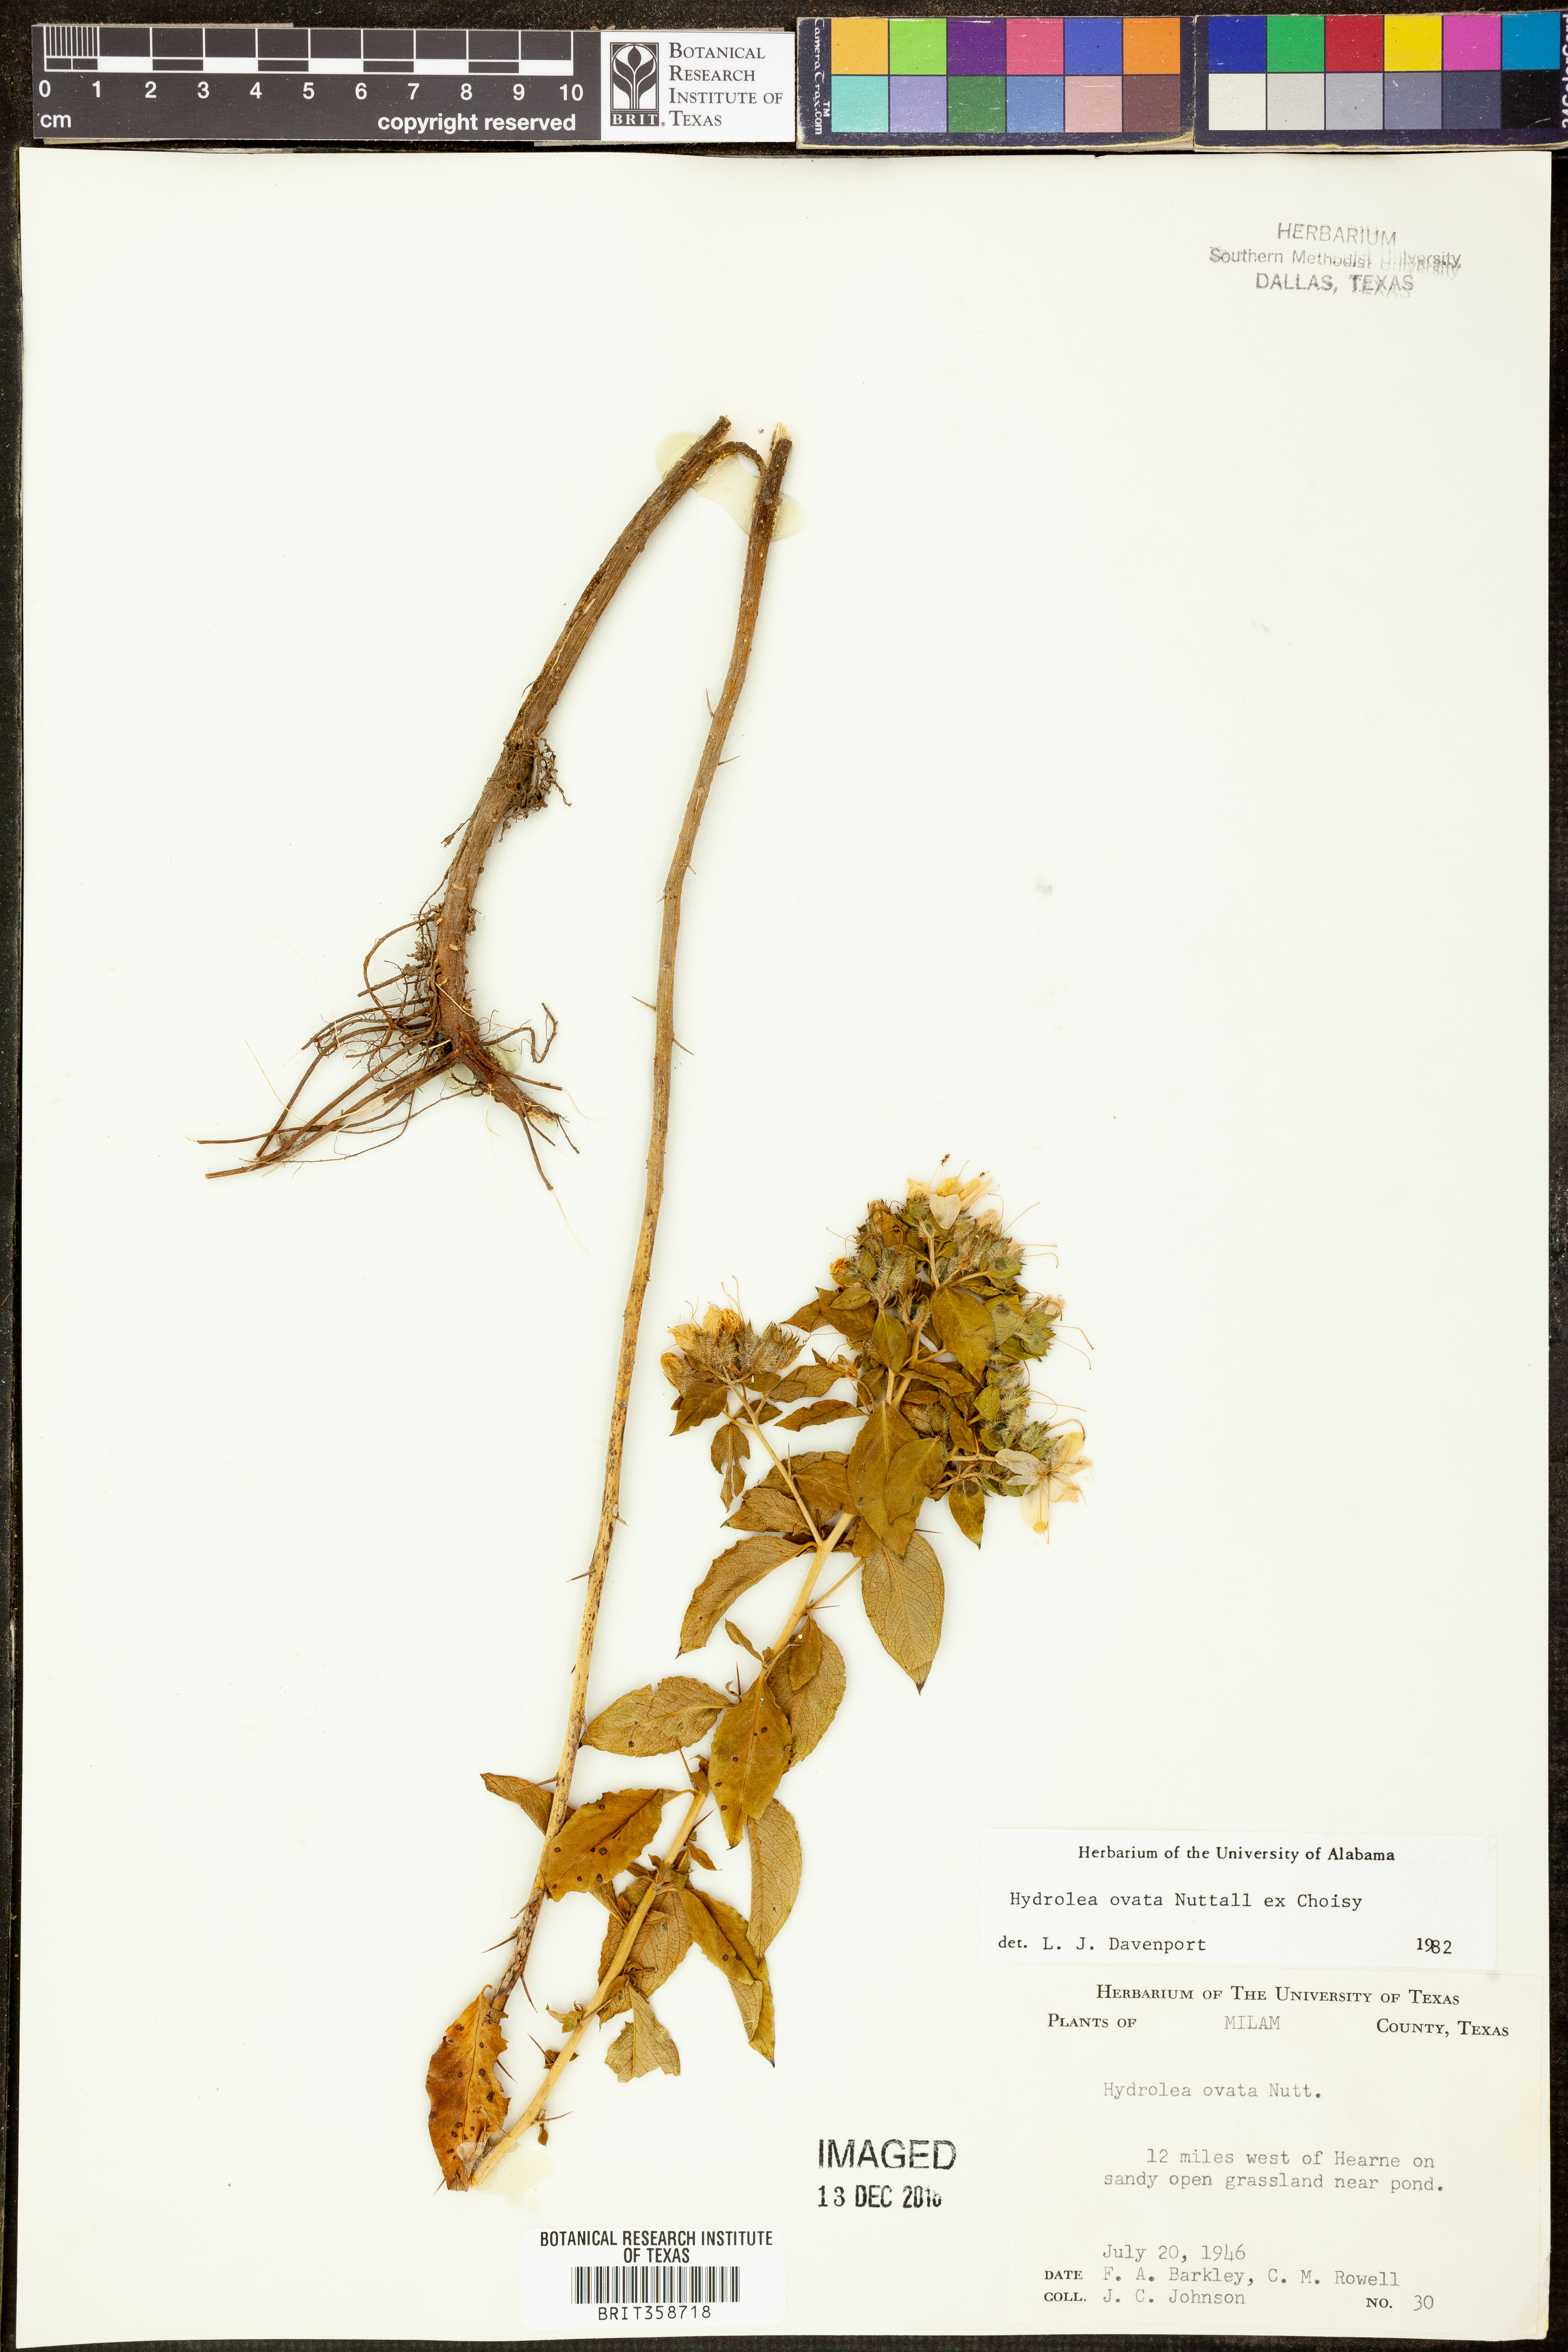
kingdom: Plantae
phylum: Tracheophyta
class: Magnoliopsida
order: Solanales
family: Hydroleaceae
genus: Hydrolea
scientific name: Hydrolea ovata
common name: Ovate false fiddleleaf
